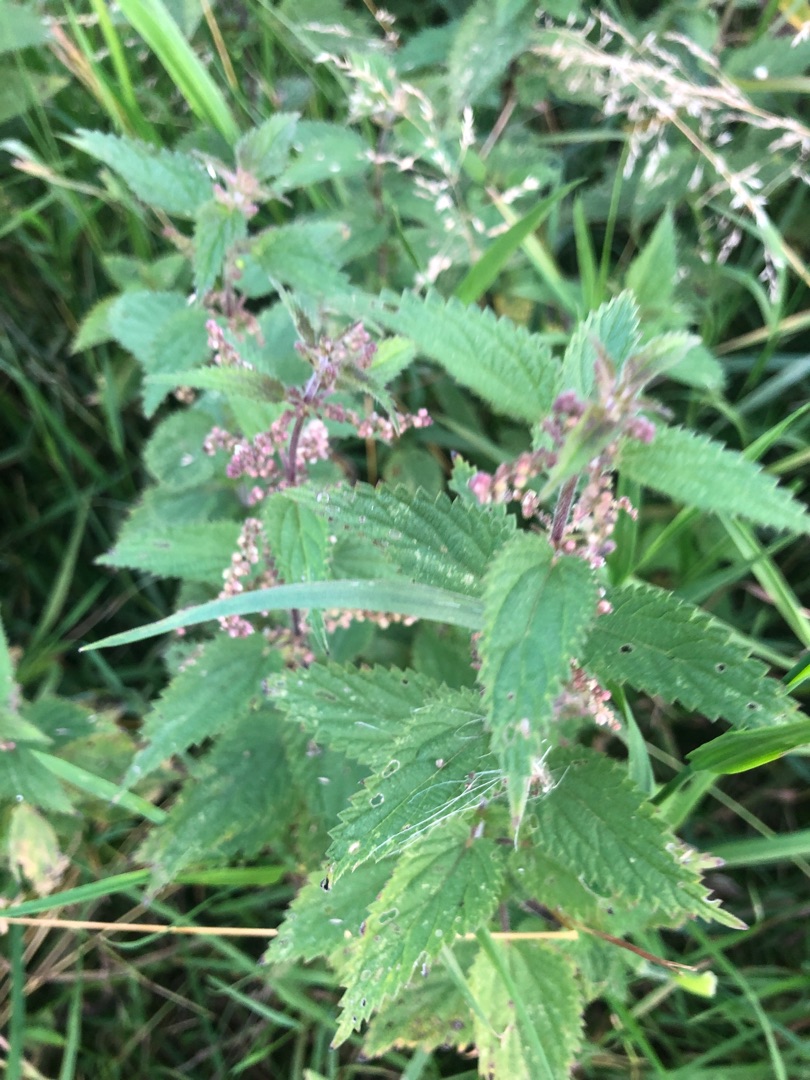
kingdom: Plantae
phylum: Tracheophyta
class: Magnoliopsida
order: Rosales
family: Urticaceae
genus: Urtica
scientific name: Urtica dioica
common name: Stor nælde
